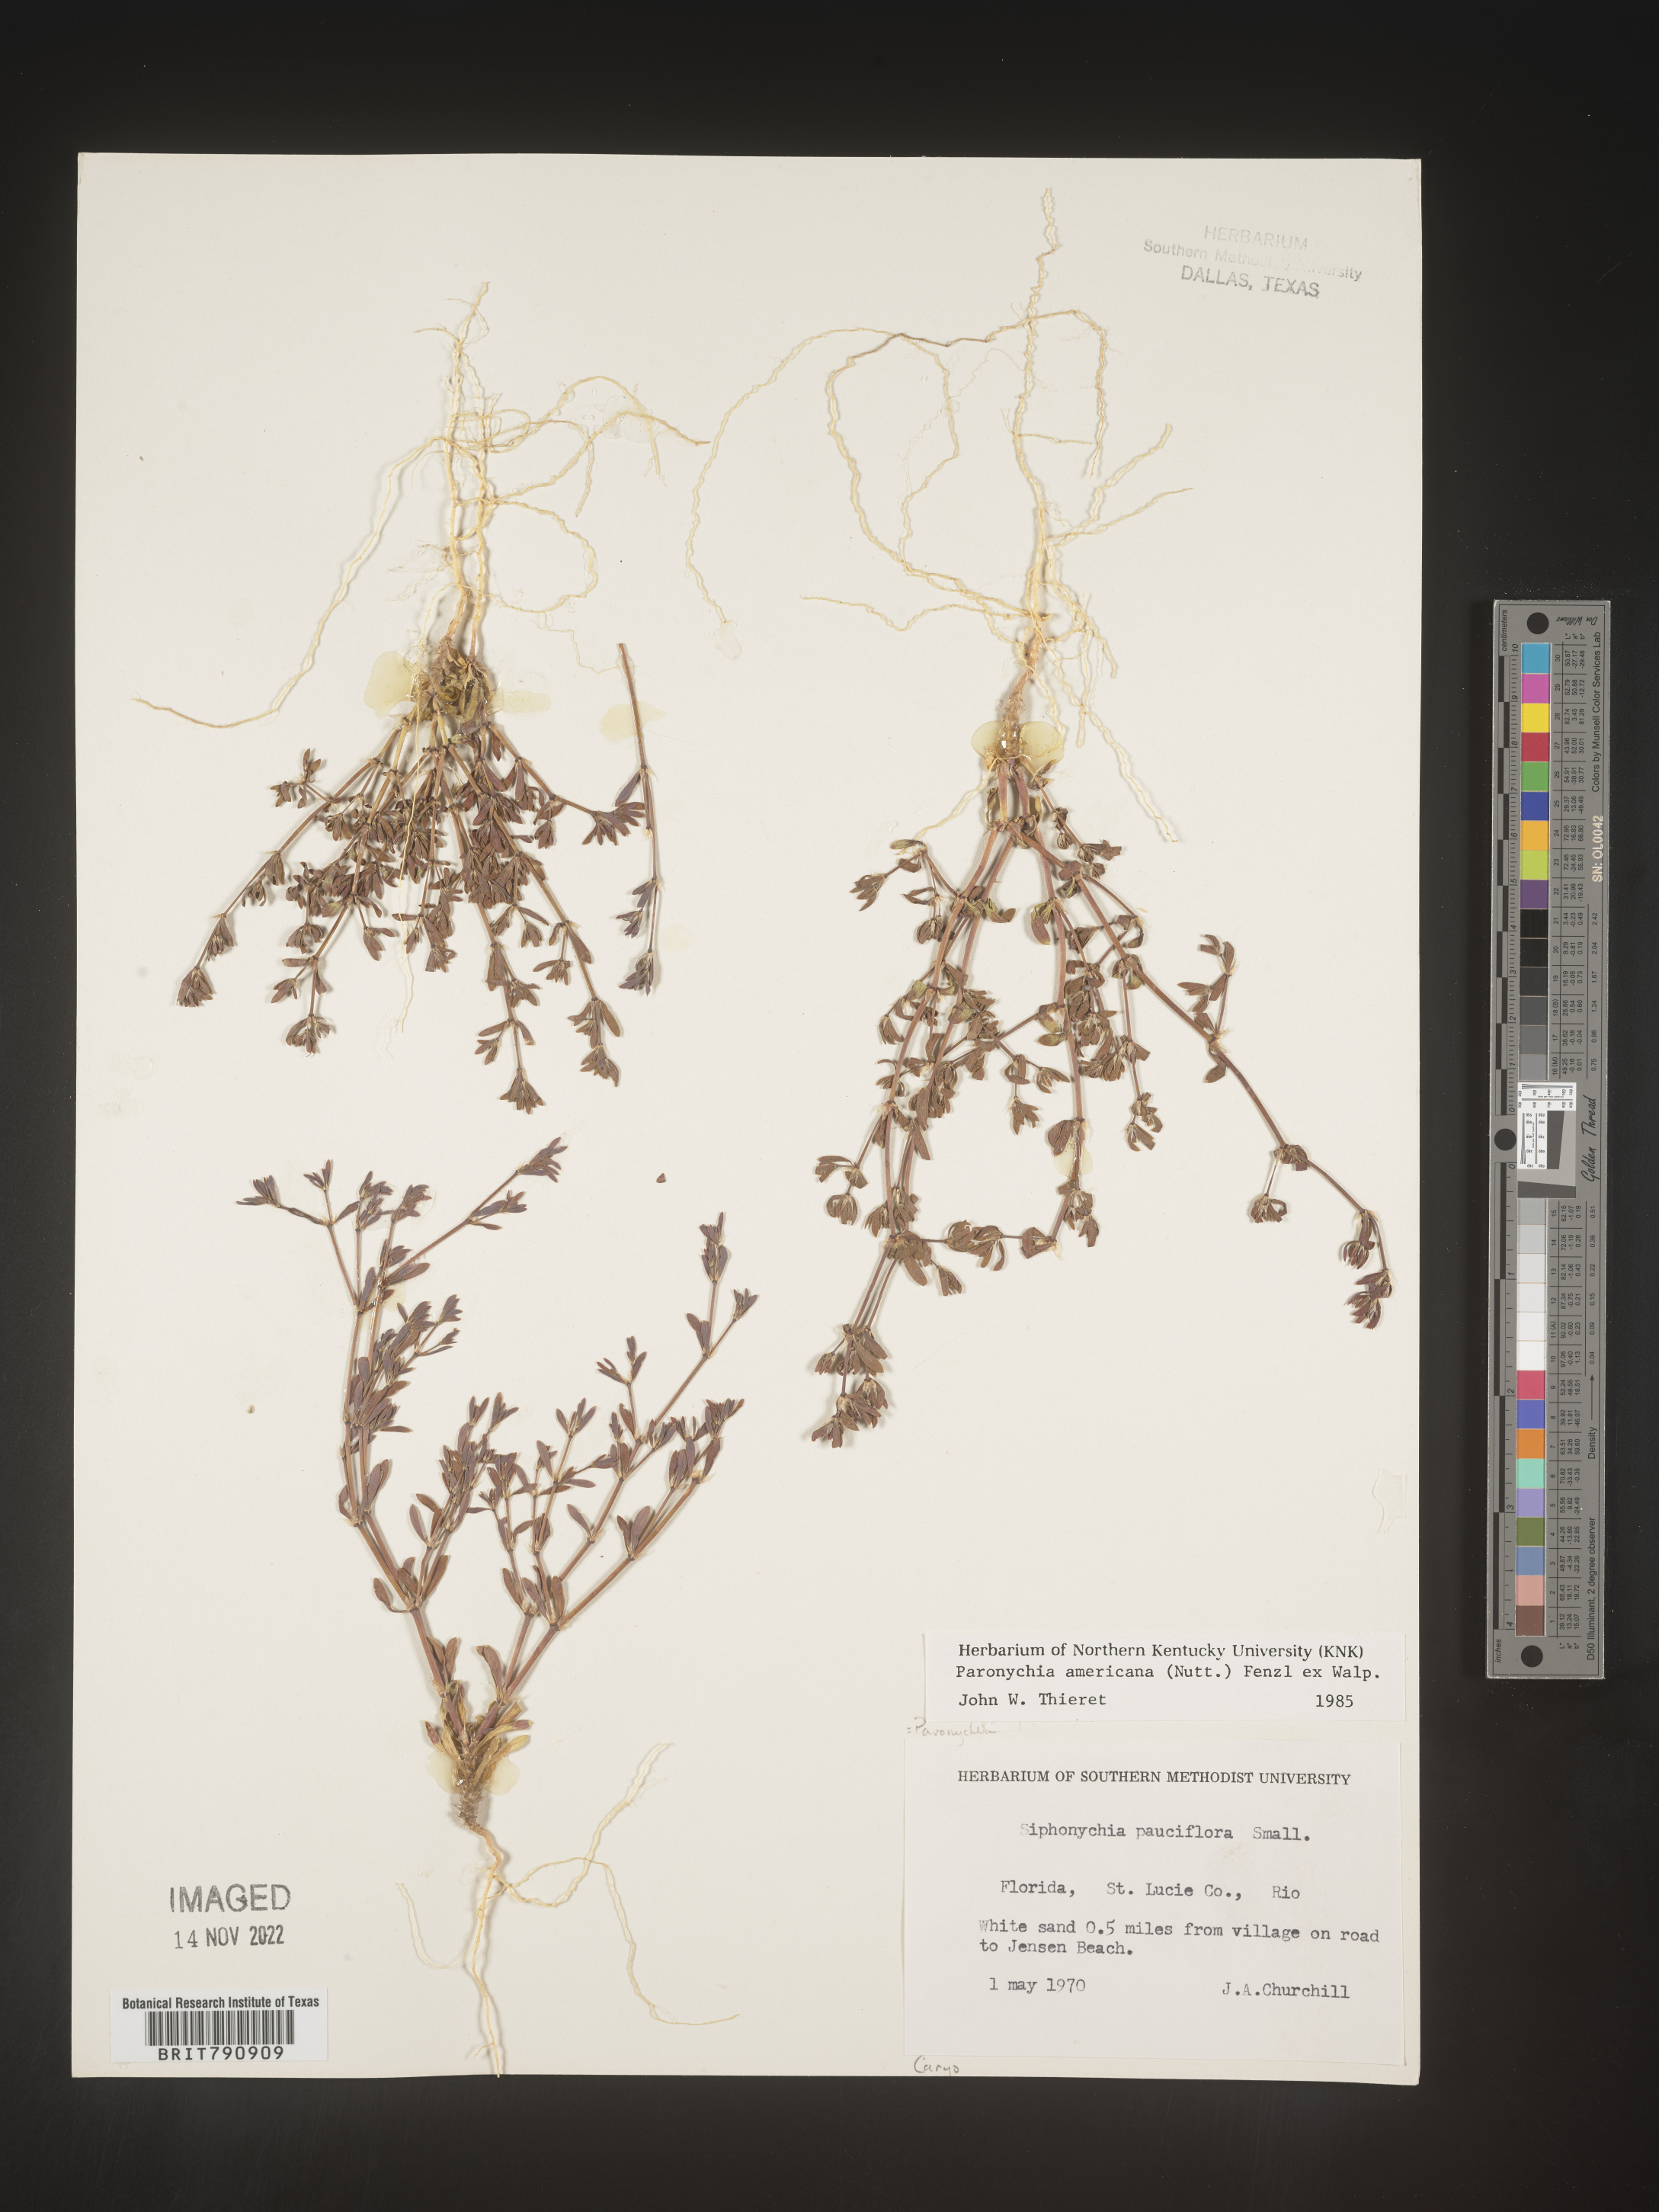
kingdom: Plantae
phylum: Tracheophyta
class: Magnoliopsida
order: Caryophyllales
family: Caryophyllaceae
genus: Paronychia
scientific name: Paronychia americana
